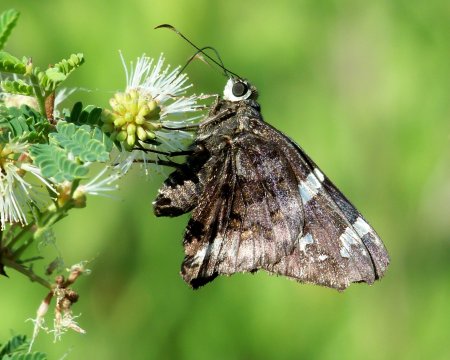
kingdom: Animalia
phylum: Arthropoda
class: Insecta
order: Lepidoptera
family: Hesperiidae
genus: Codatractus
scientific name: Codatractus arizonensis
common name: Arizona Skipper
